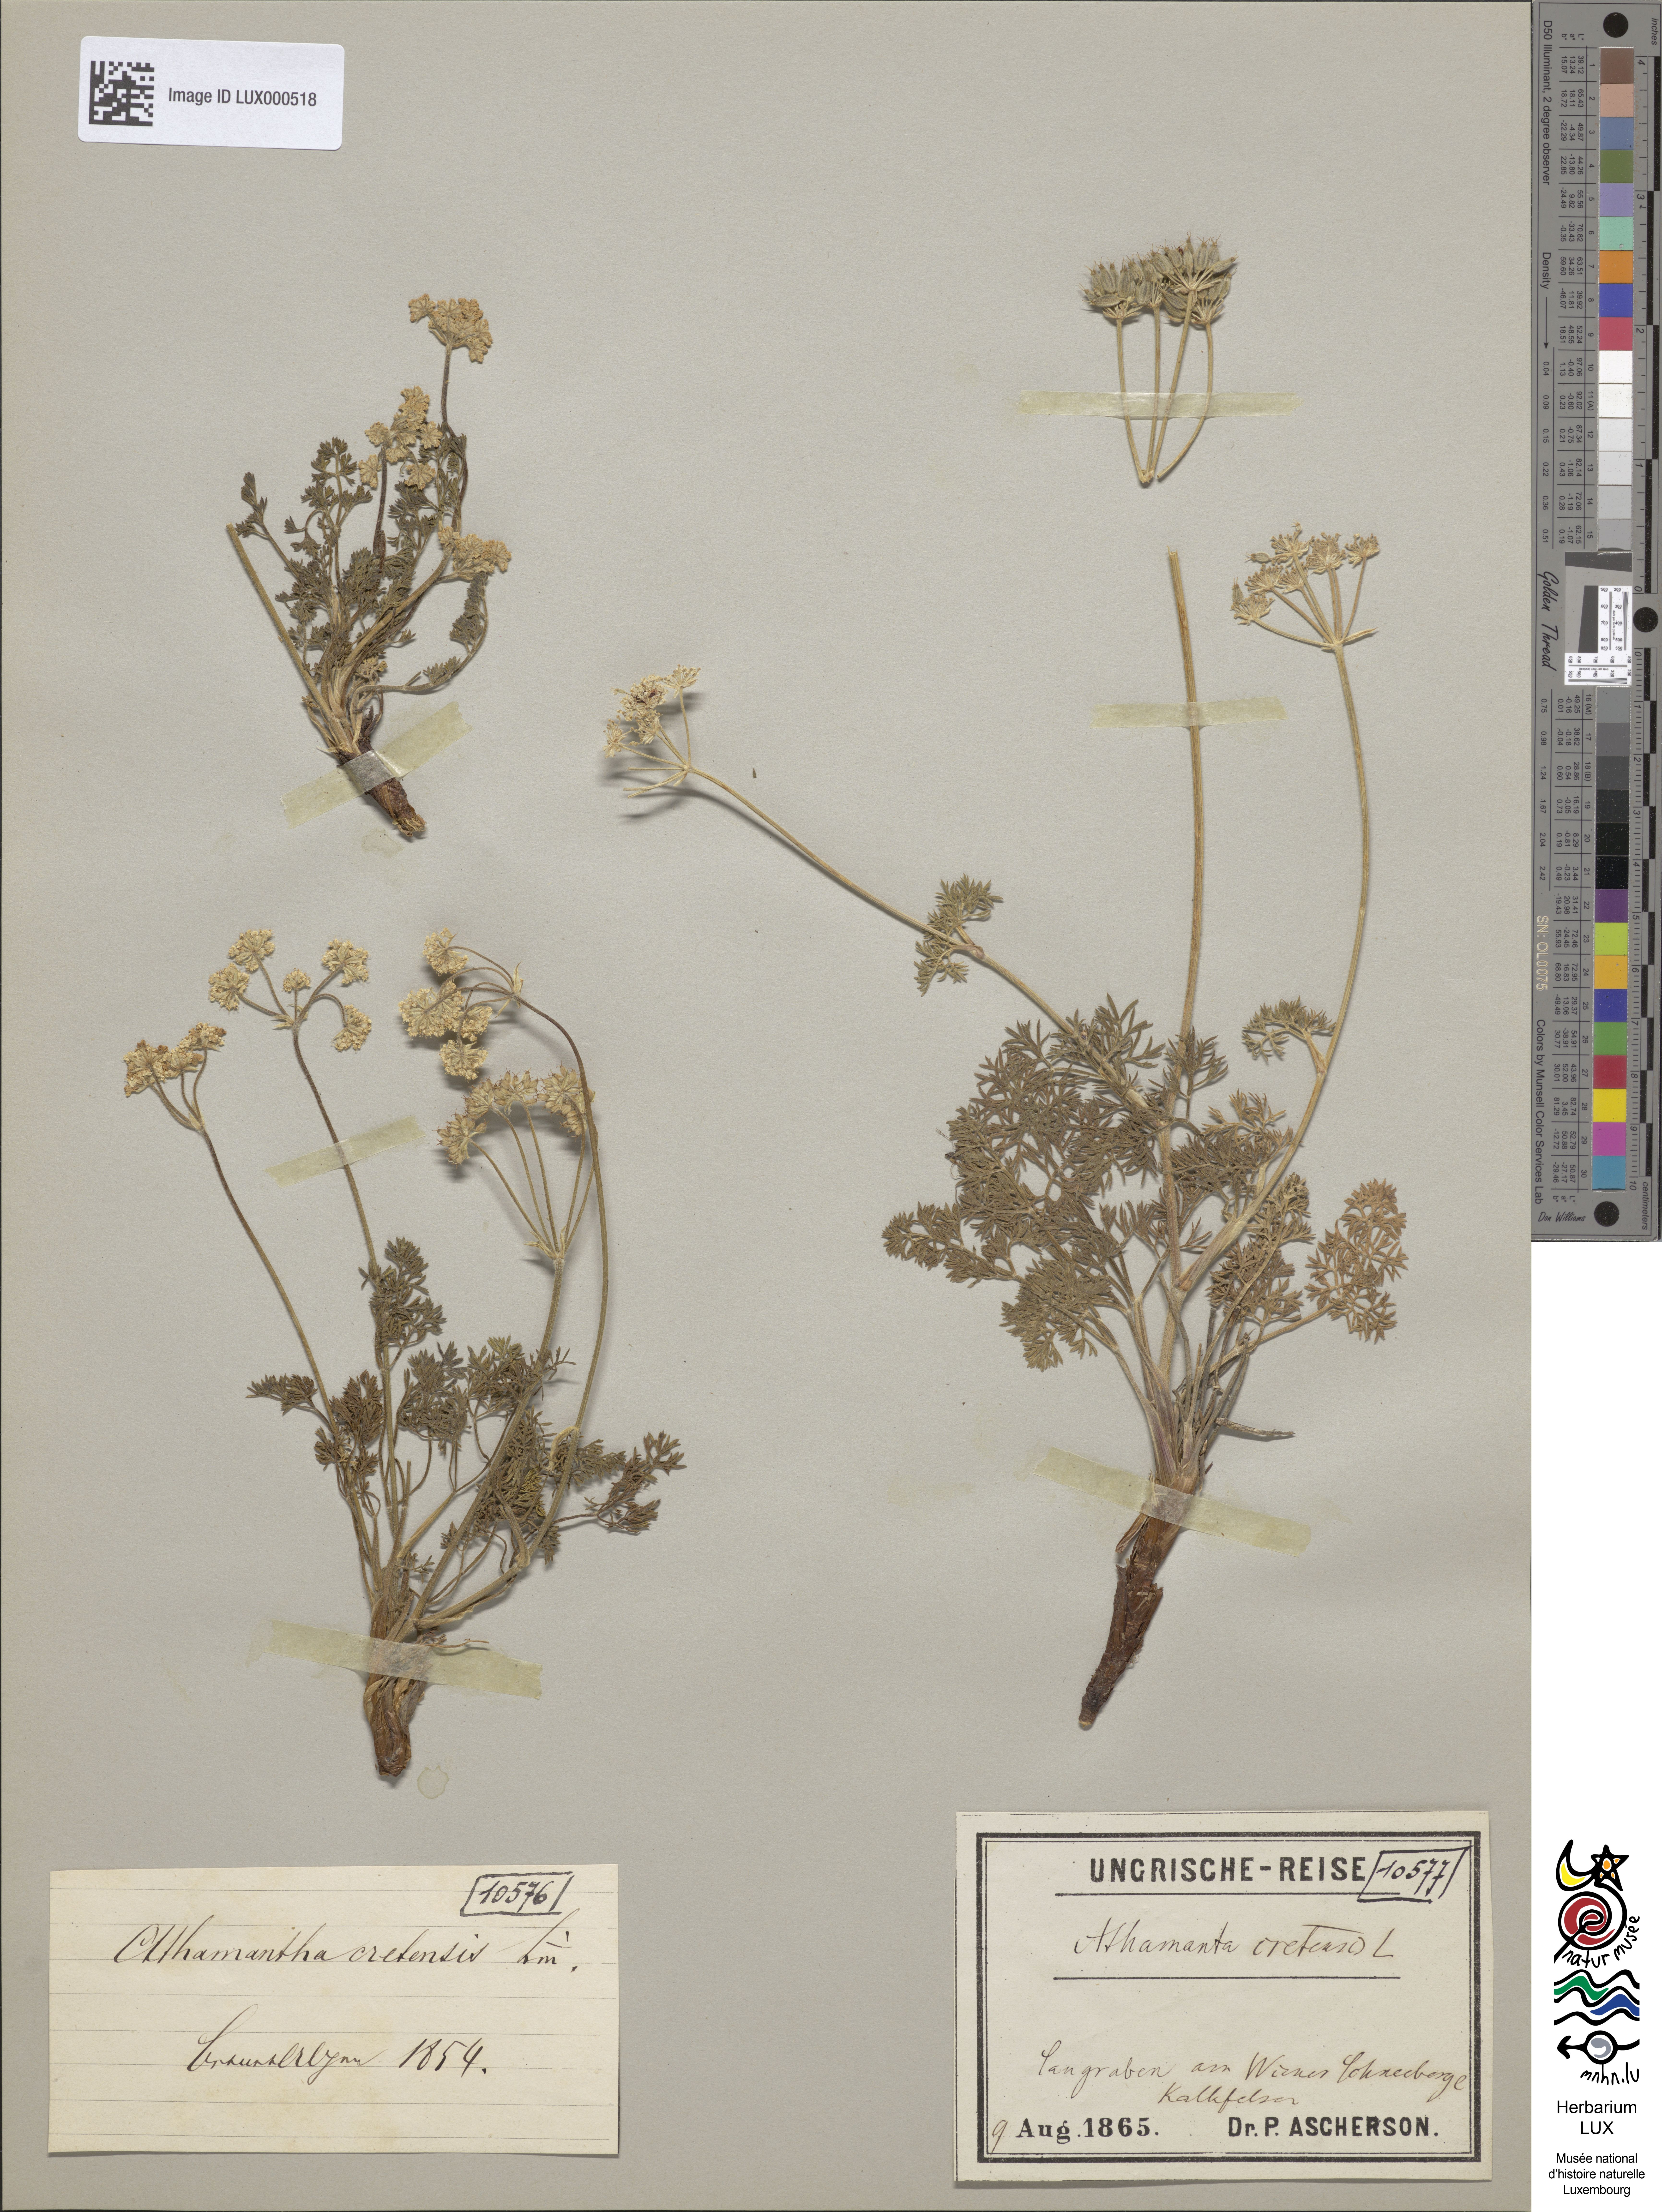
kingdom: Plantae
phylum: Tracheophyta
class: Magnoliopsida
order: Apiales
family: Apiaceae
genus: Athamanta
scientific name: Athamanta cretensis
